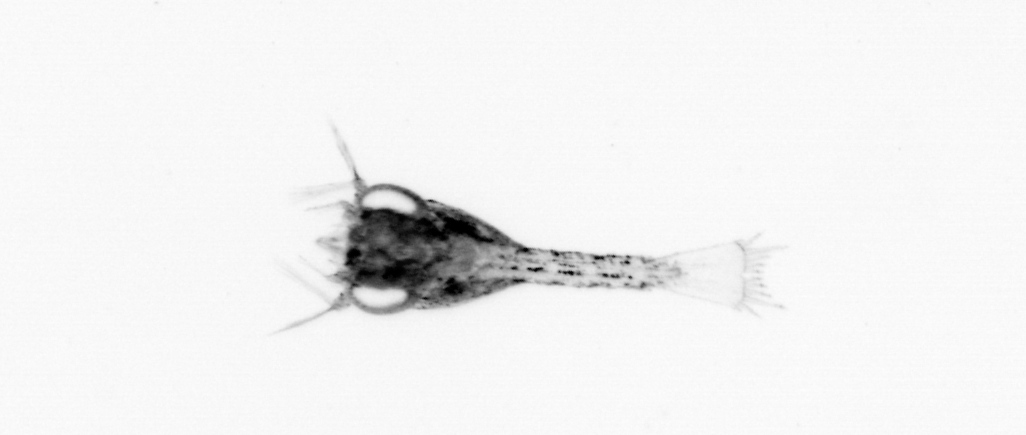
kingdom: Animalia
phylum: Arthropoda
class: Malacostraca
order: Decapoda
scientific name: Decapoda
